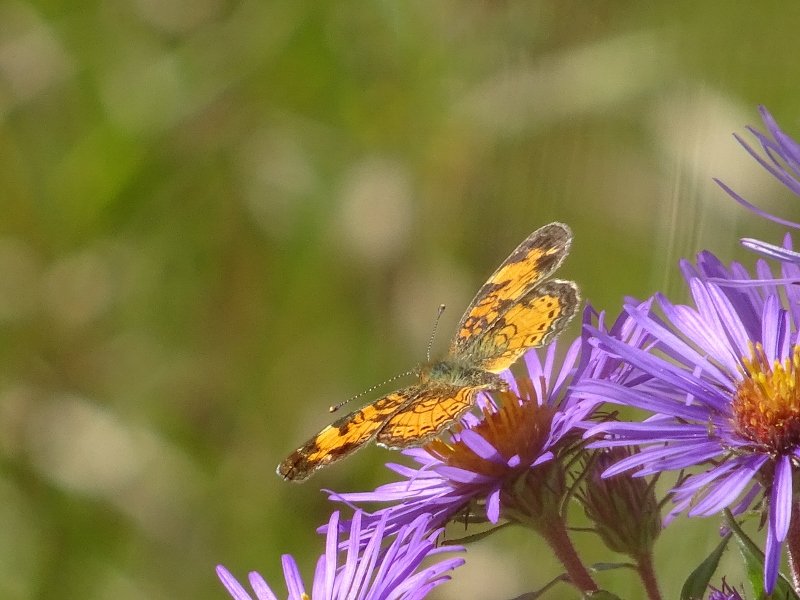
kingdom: Animalia
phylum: Arthropoda
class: Insecta
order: Lepidoptera
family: Nymphalidae
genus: Phyciodes
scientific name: Phyciodes tharos
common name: Northern Crescent
